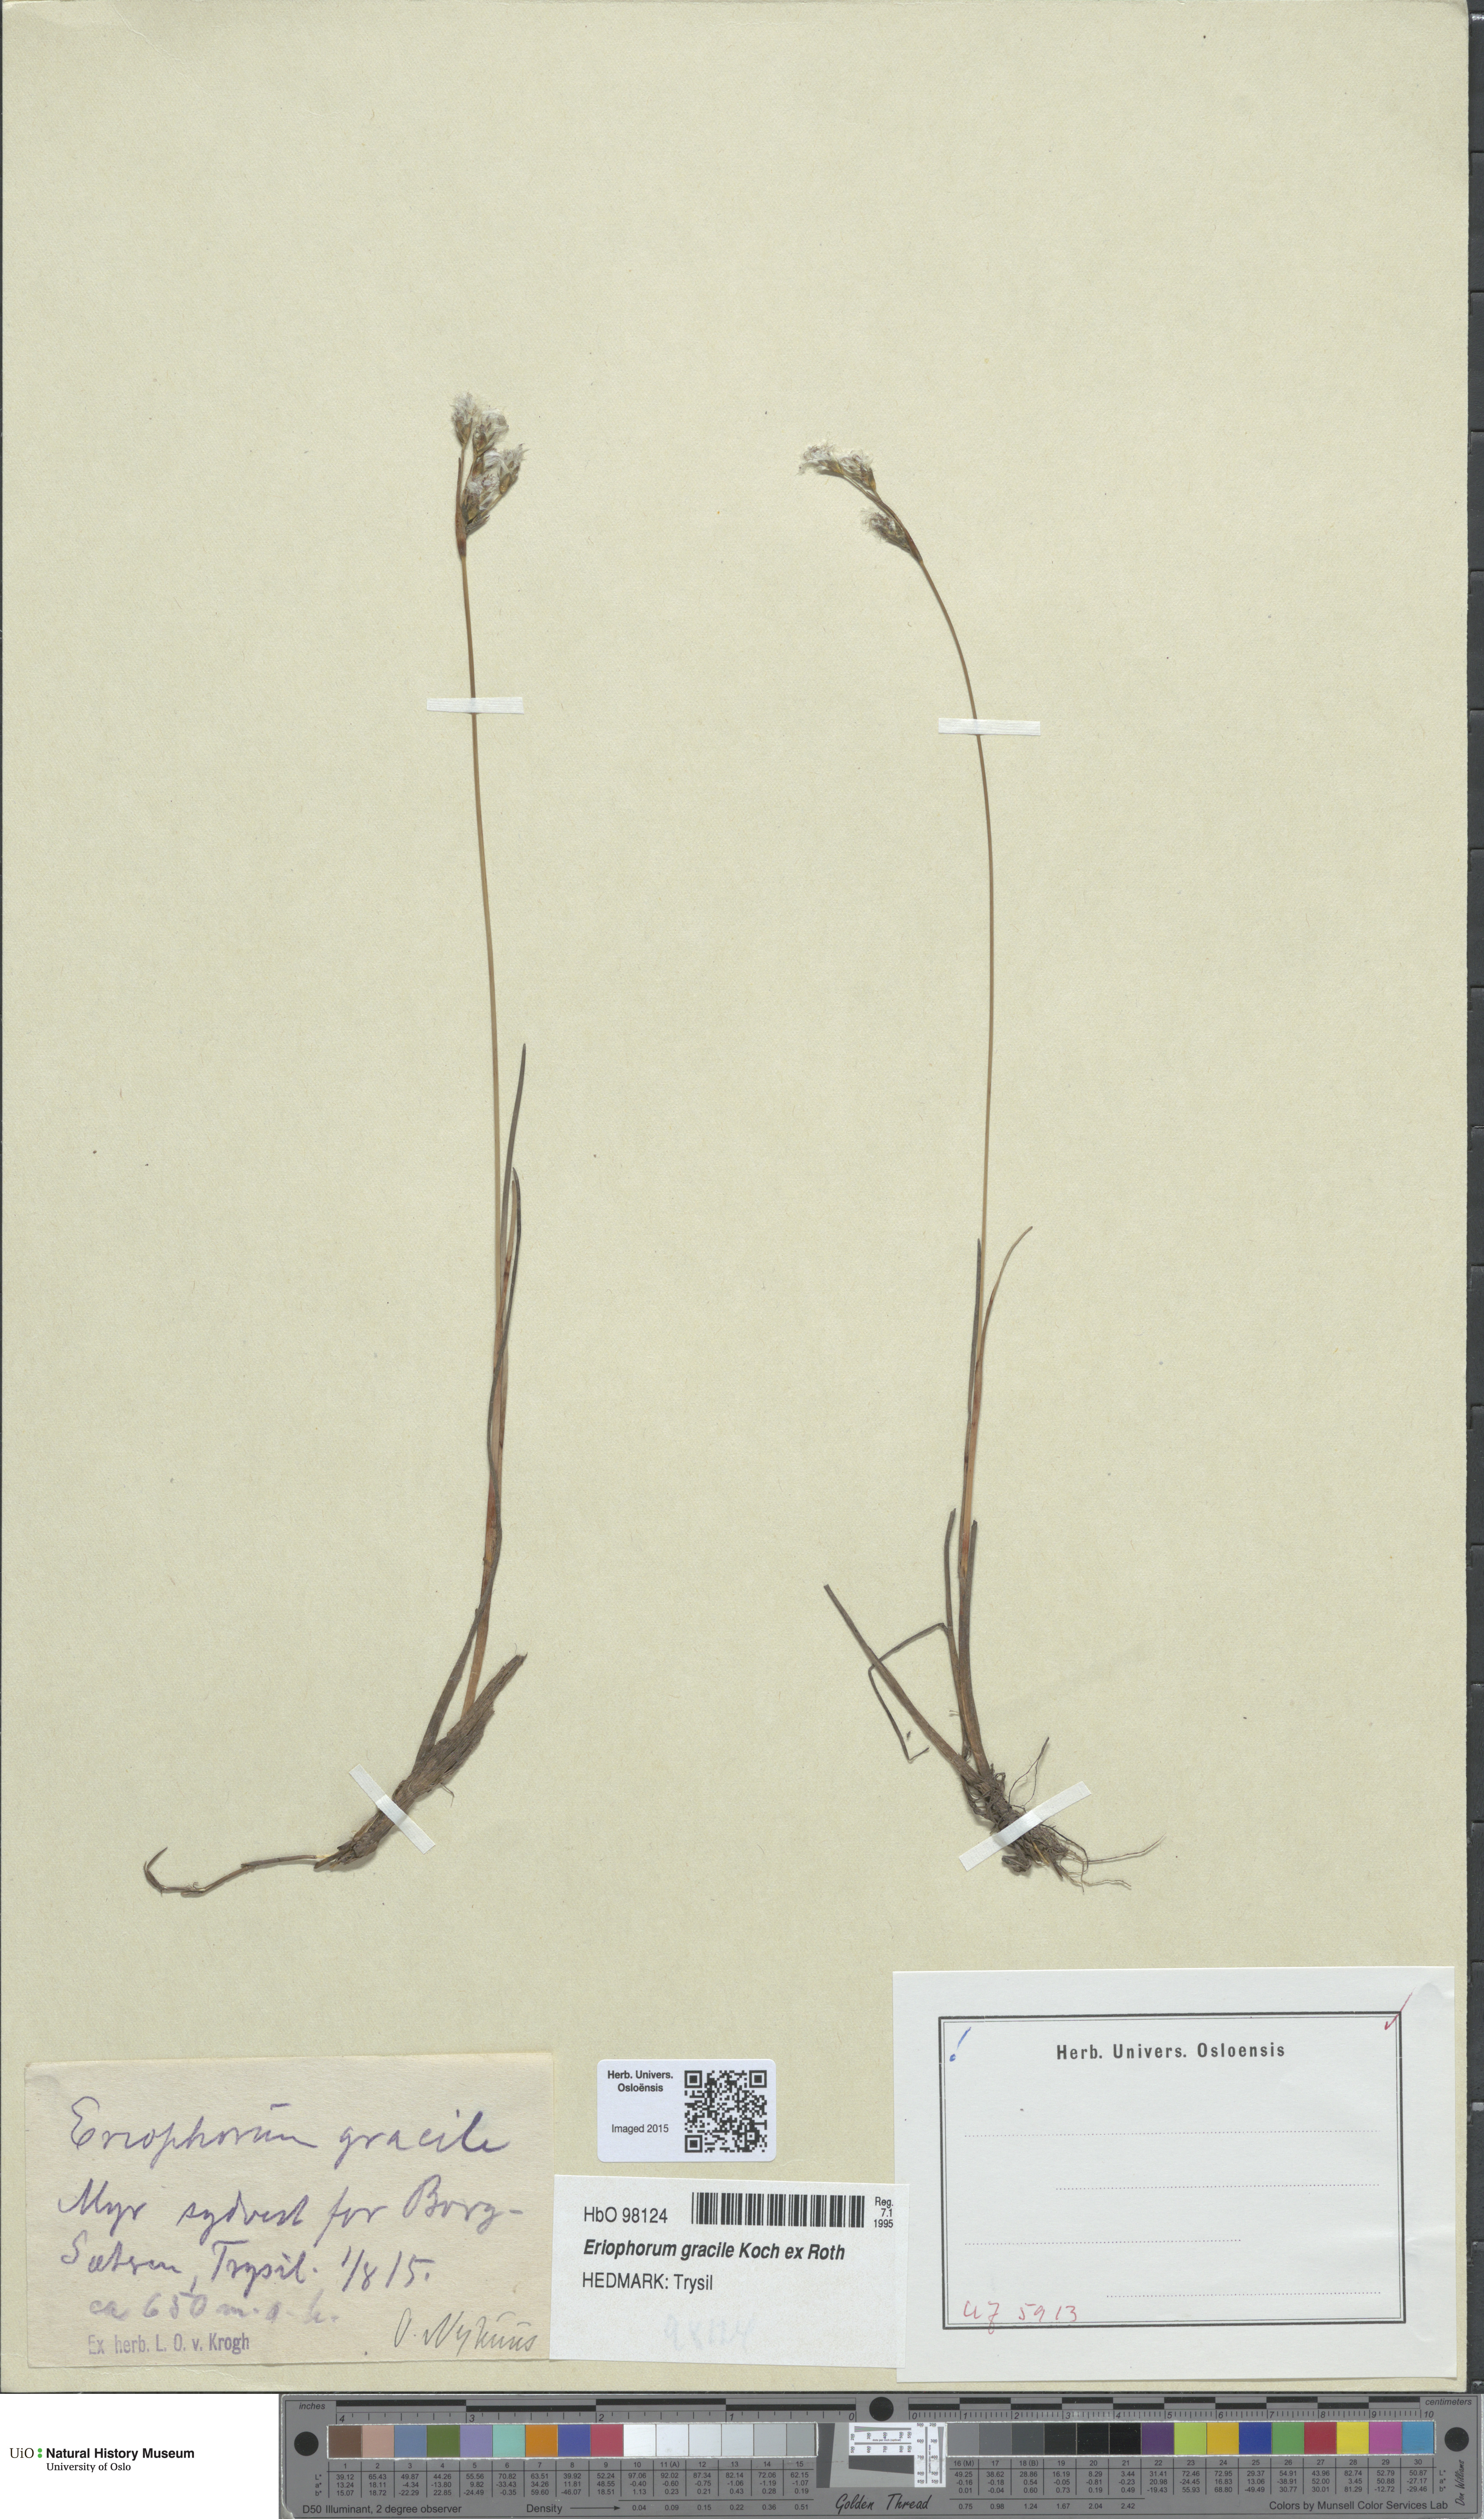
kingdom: Plantae
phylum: Tracheophyta
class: Liliopsida
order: Poales
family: Cyperaceae
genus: Eriophorum
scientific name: Eriophorum gracile
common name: Slender cottongrass
